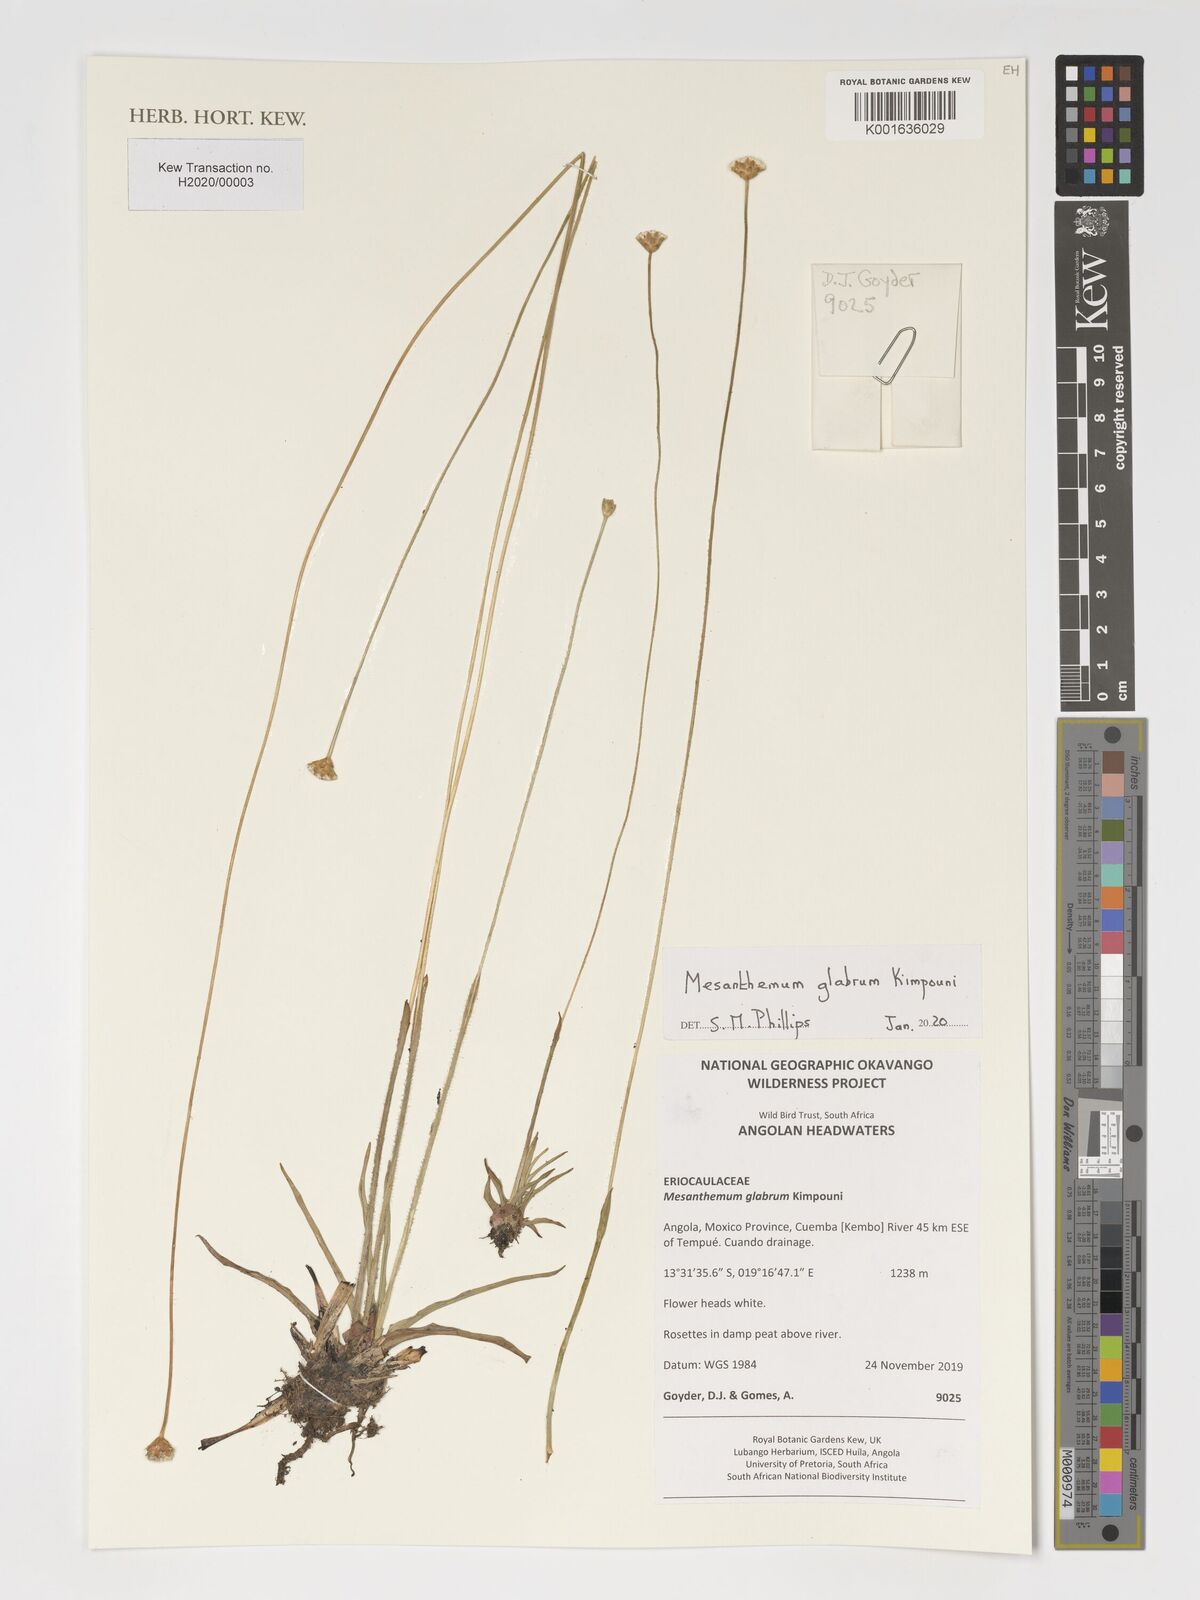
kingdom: Plantae
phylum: Tracheophyta
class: Liliopsida
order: Poales
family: Eriocaulaceae
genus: Mesanthemum
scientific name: Mesanthemum glabrum
